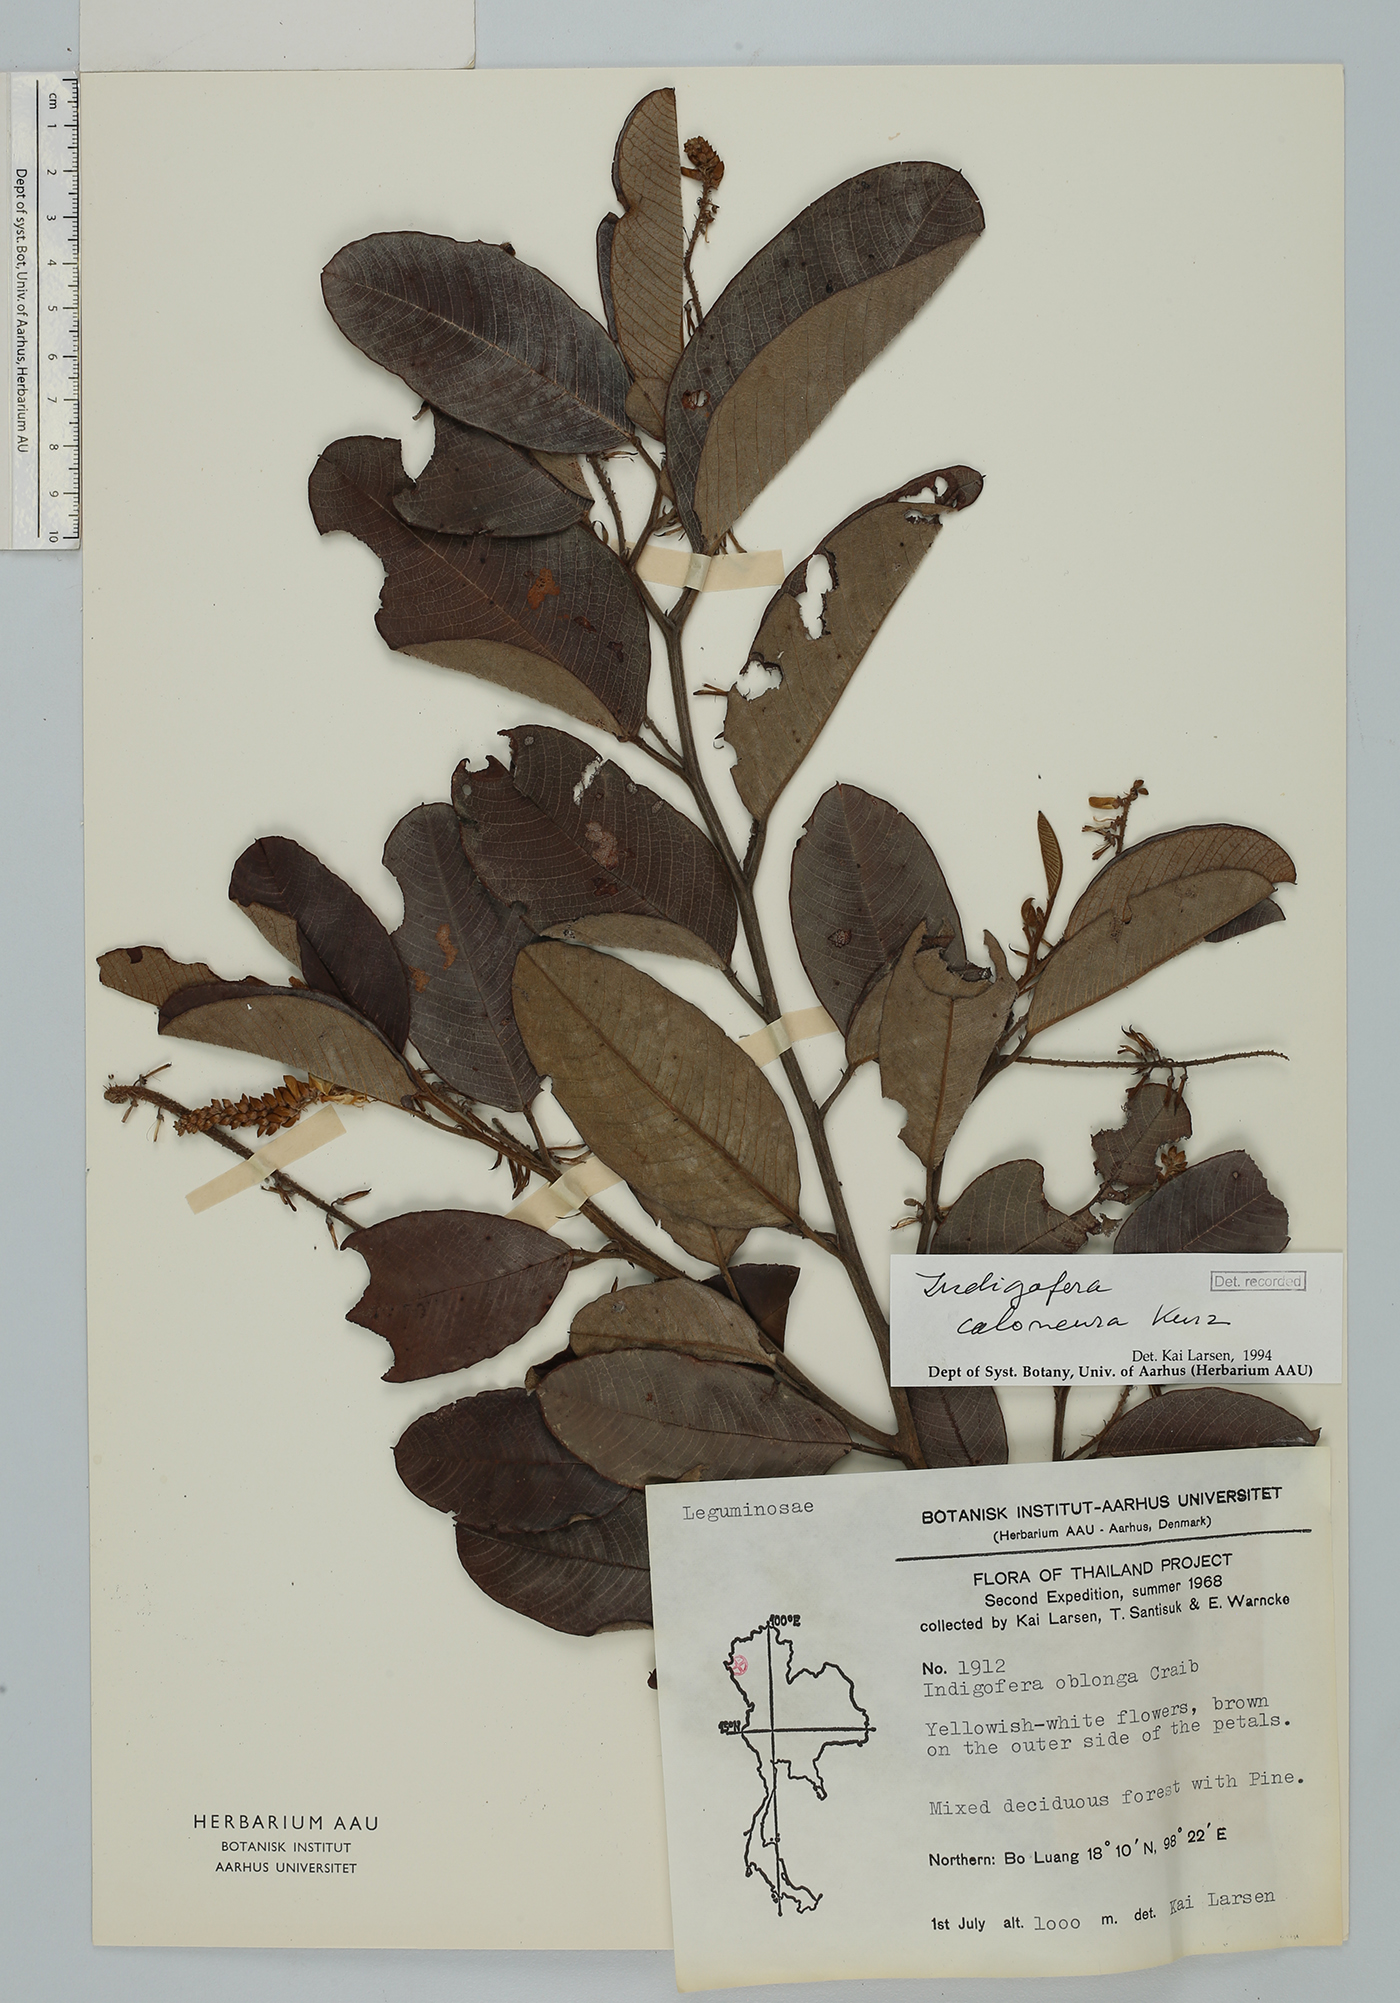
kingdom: Plantae
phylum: Tracheophyta
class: Magnoliopsida
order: Fabales
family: Fabaceae
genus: Indigofera
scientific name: Indigofera caloneura
